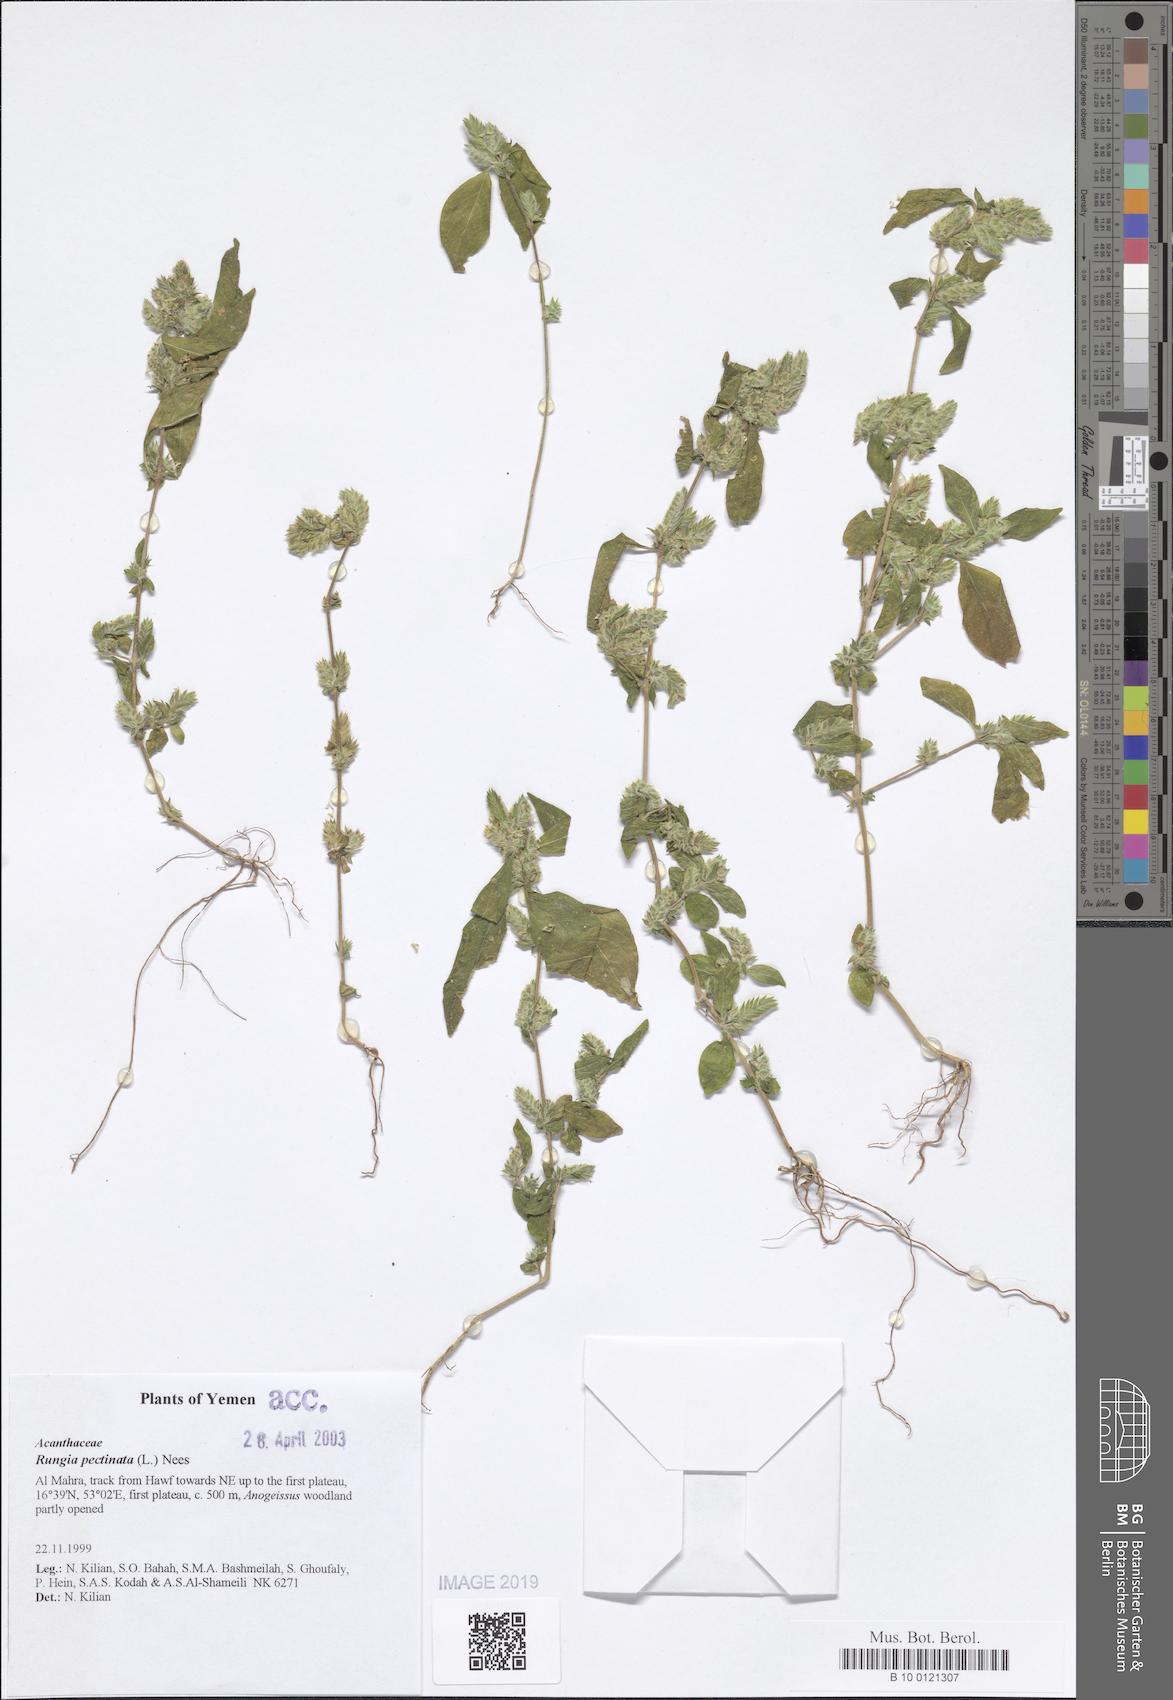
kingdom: Plantae
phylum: Tracheophyta
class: Magnoliopsida
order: Lamiales
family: Acanthaceae
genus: Rungia
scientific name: Rungia pectinata
